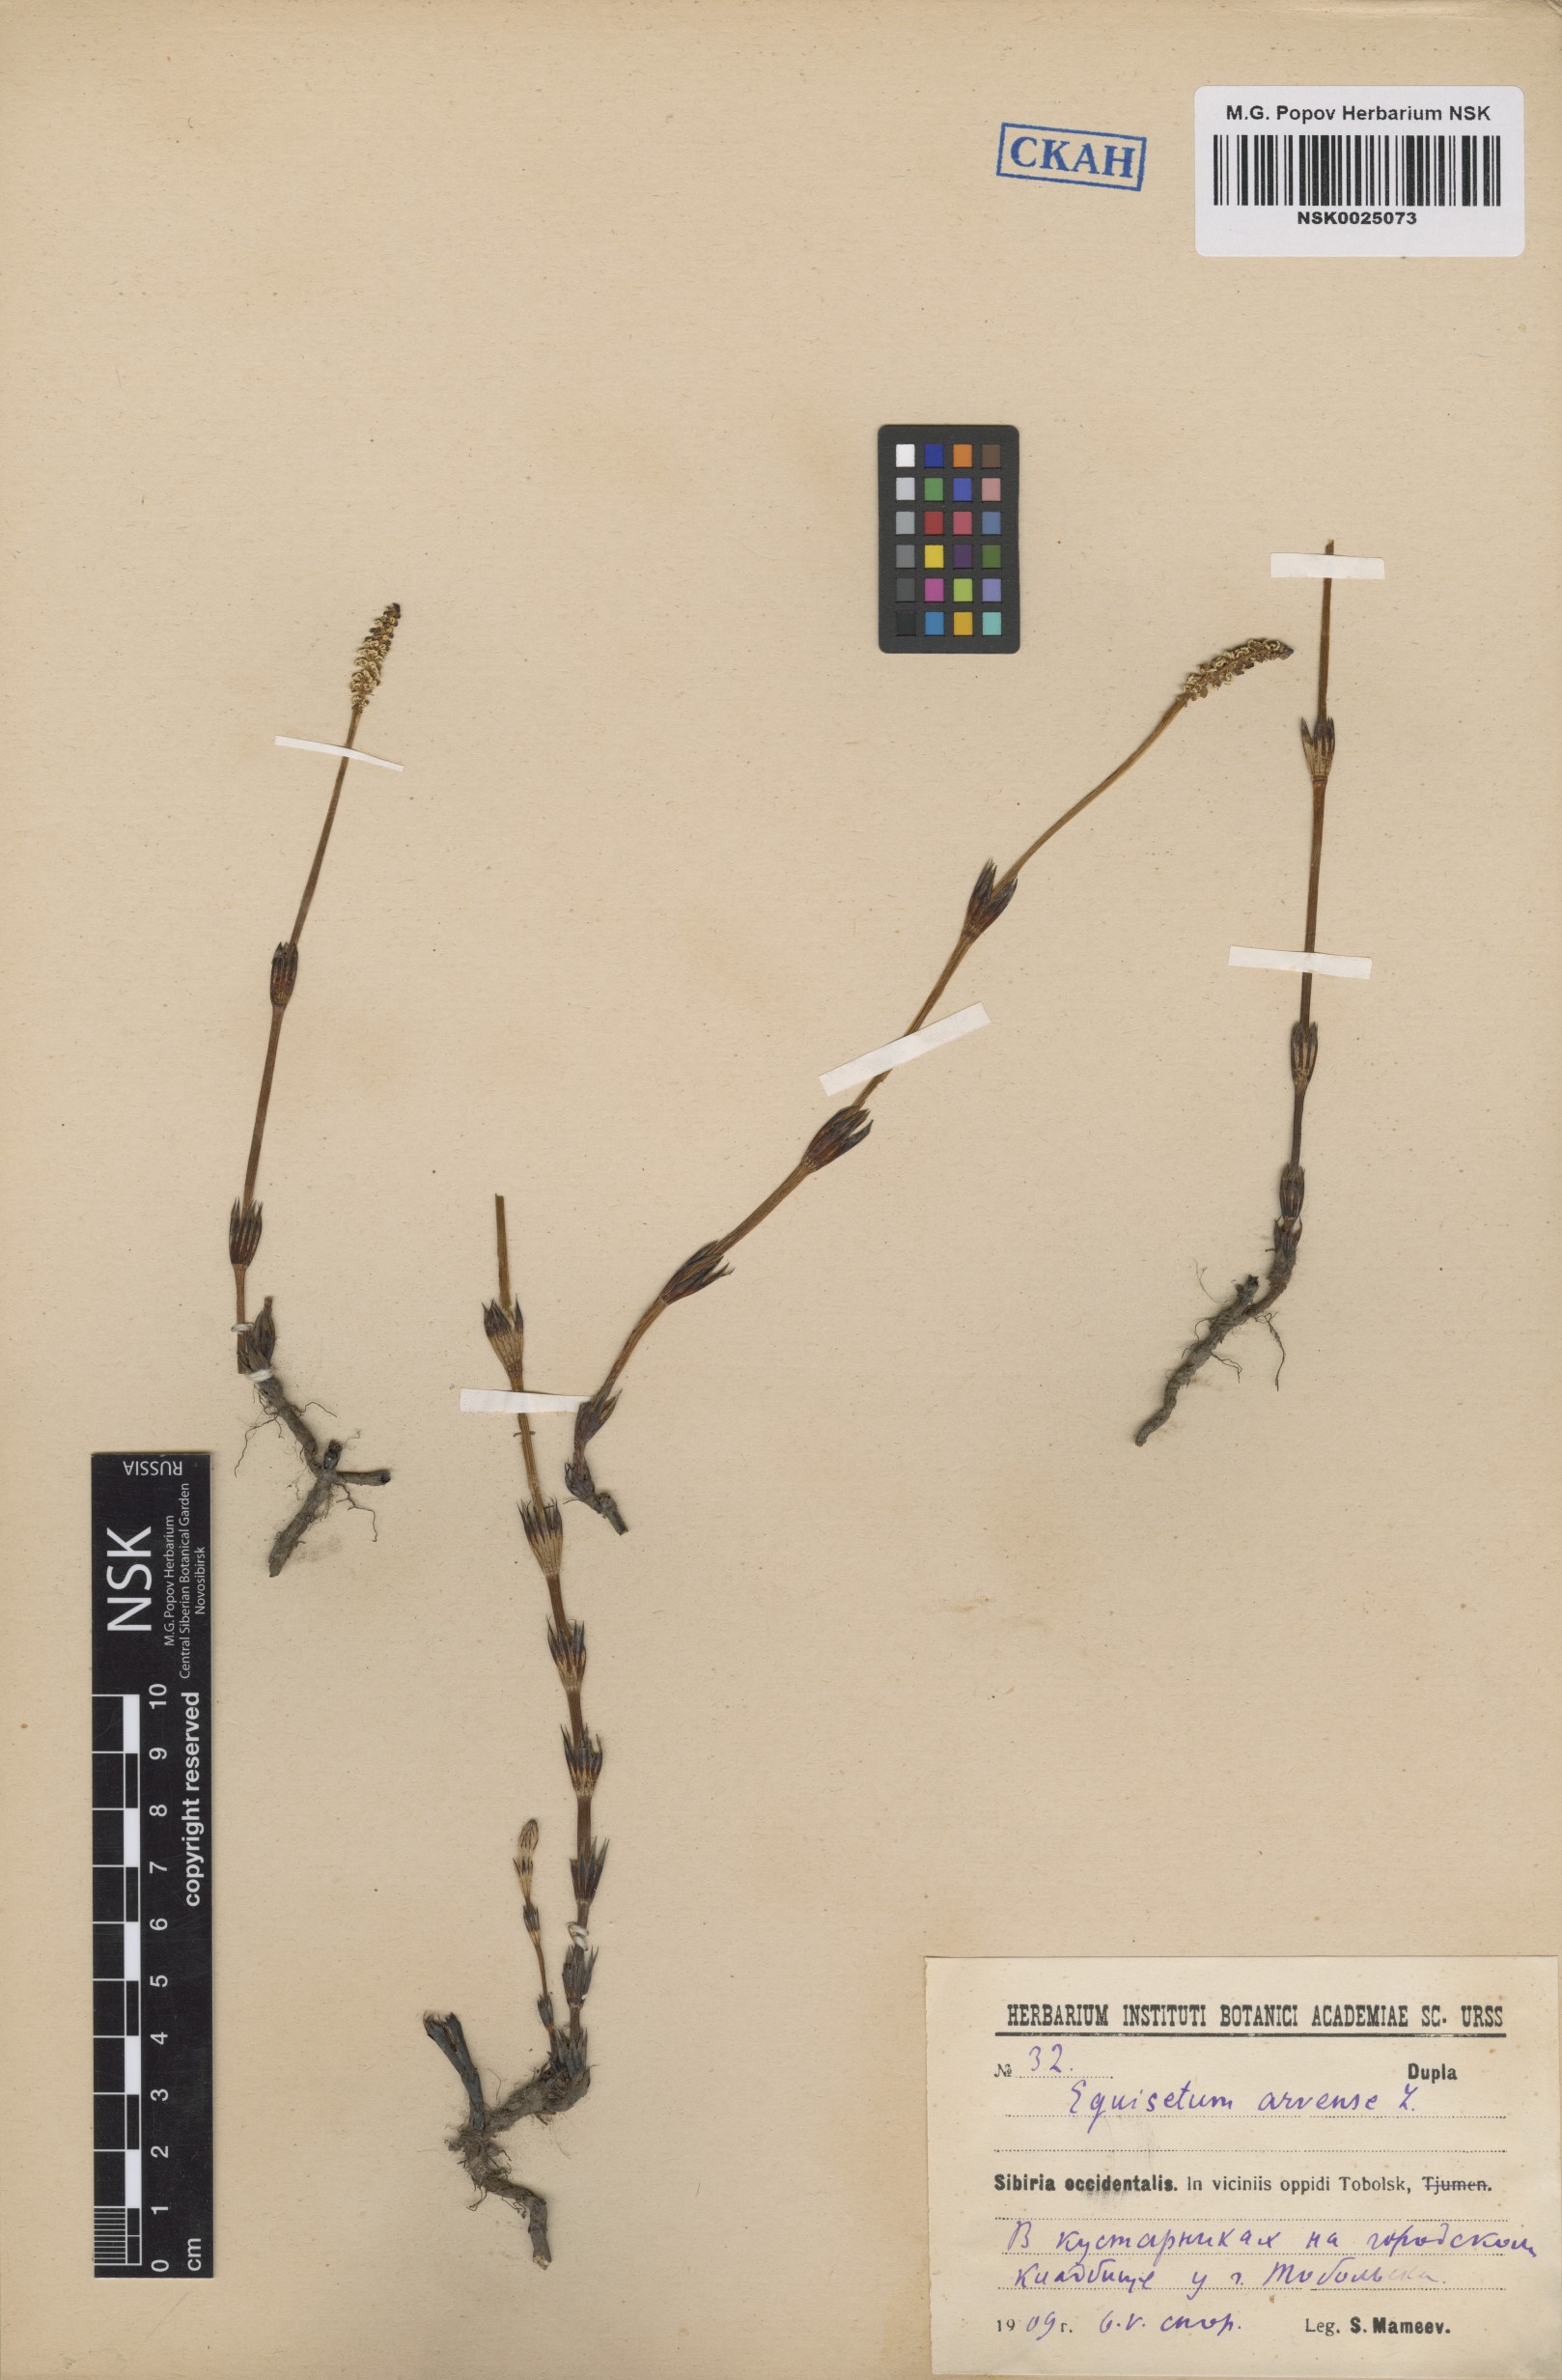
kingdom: Plantae
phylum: Tracheophyta
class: Polypodiopsida
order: Equisetales
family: Equisetaceae
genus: Equisetum
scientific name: Equisetum arvense
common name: Field horsetail
